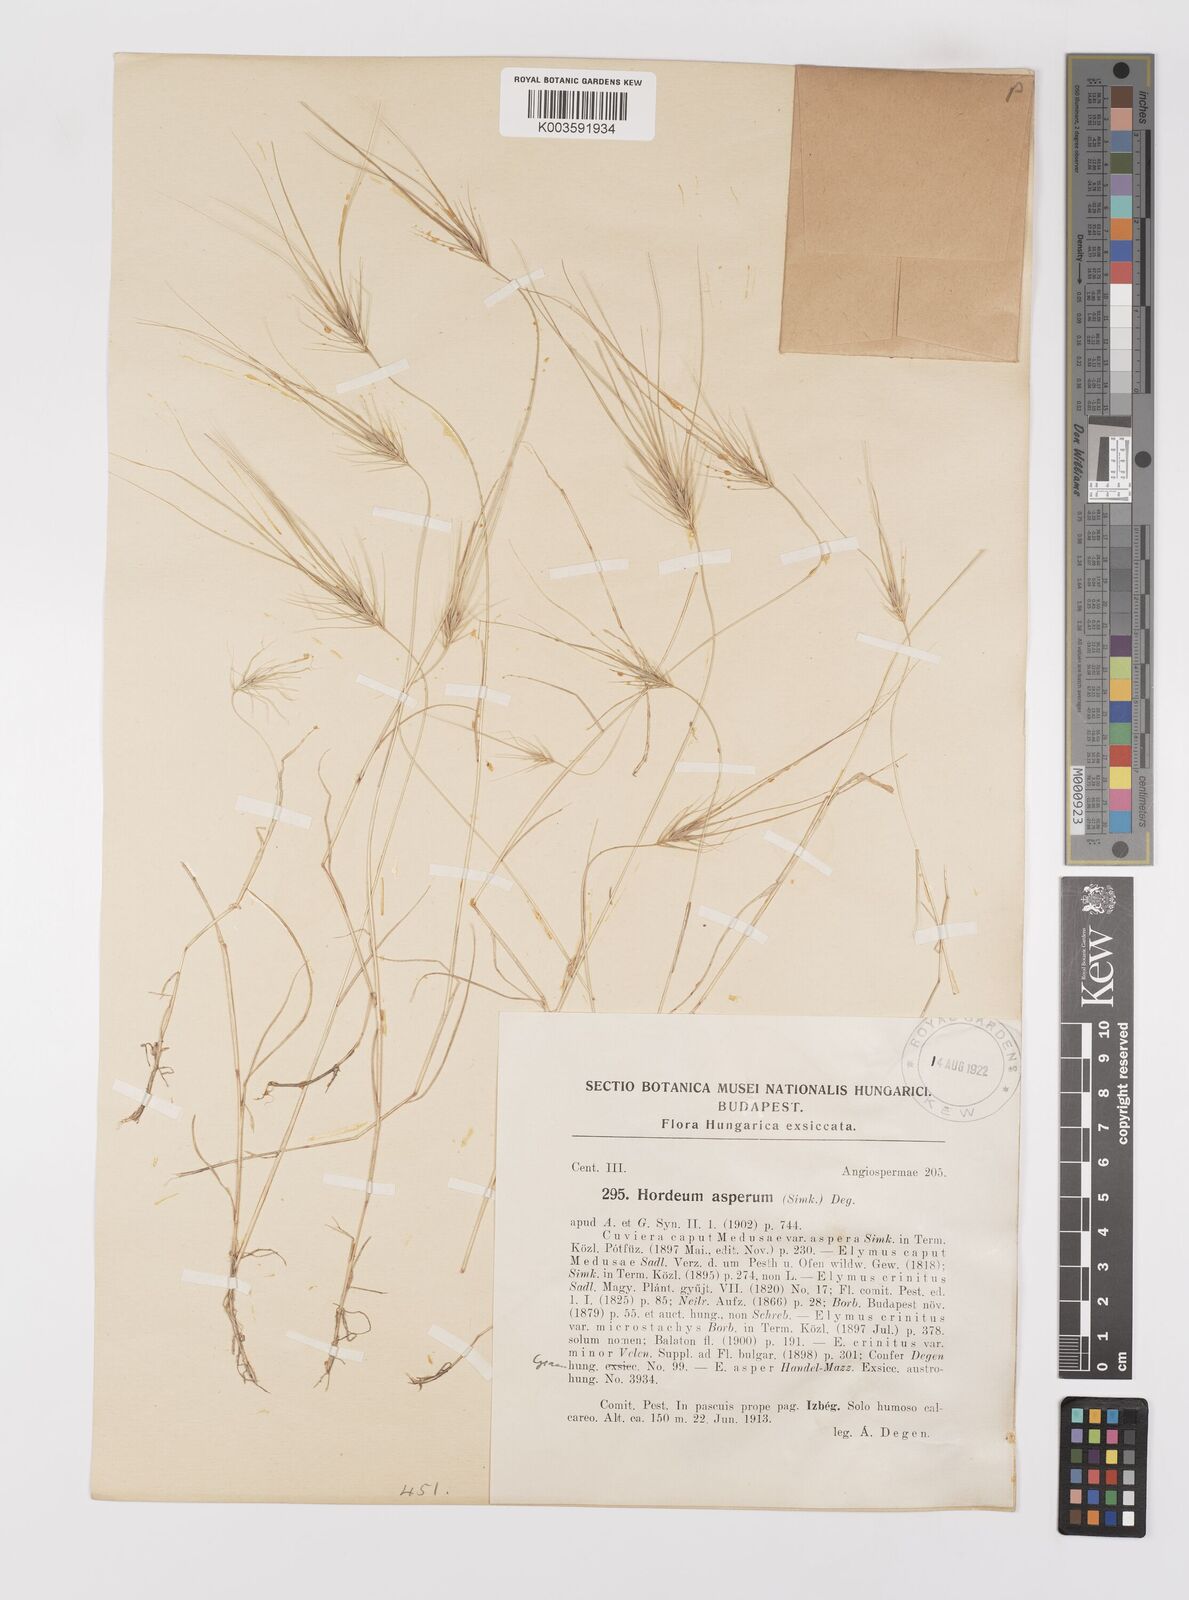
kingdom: Plantae
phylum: Tracheophyta
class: Liliopsida
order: Poales
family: Poaceae
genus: Taeniatherum
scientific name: Taeniatherum caput-medusae
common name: Medusahead
